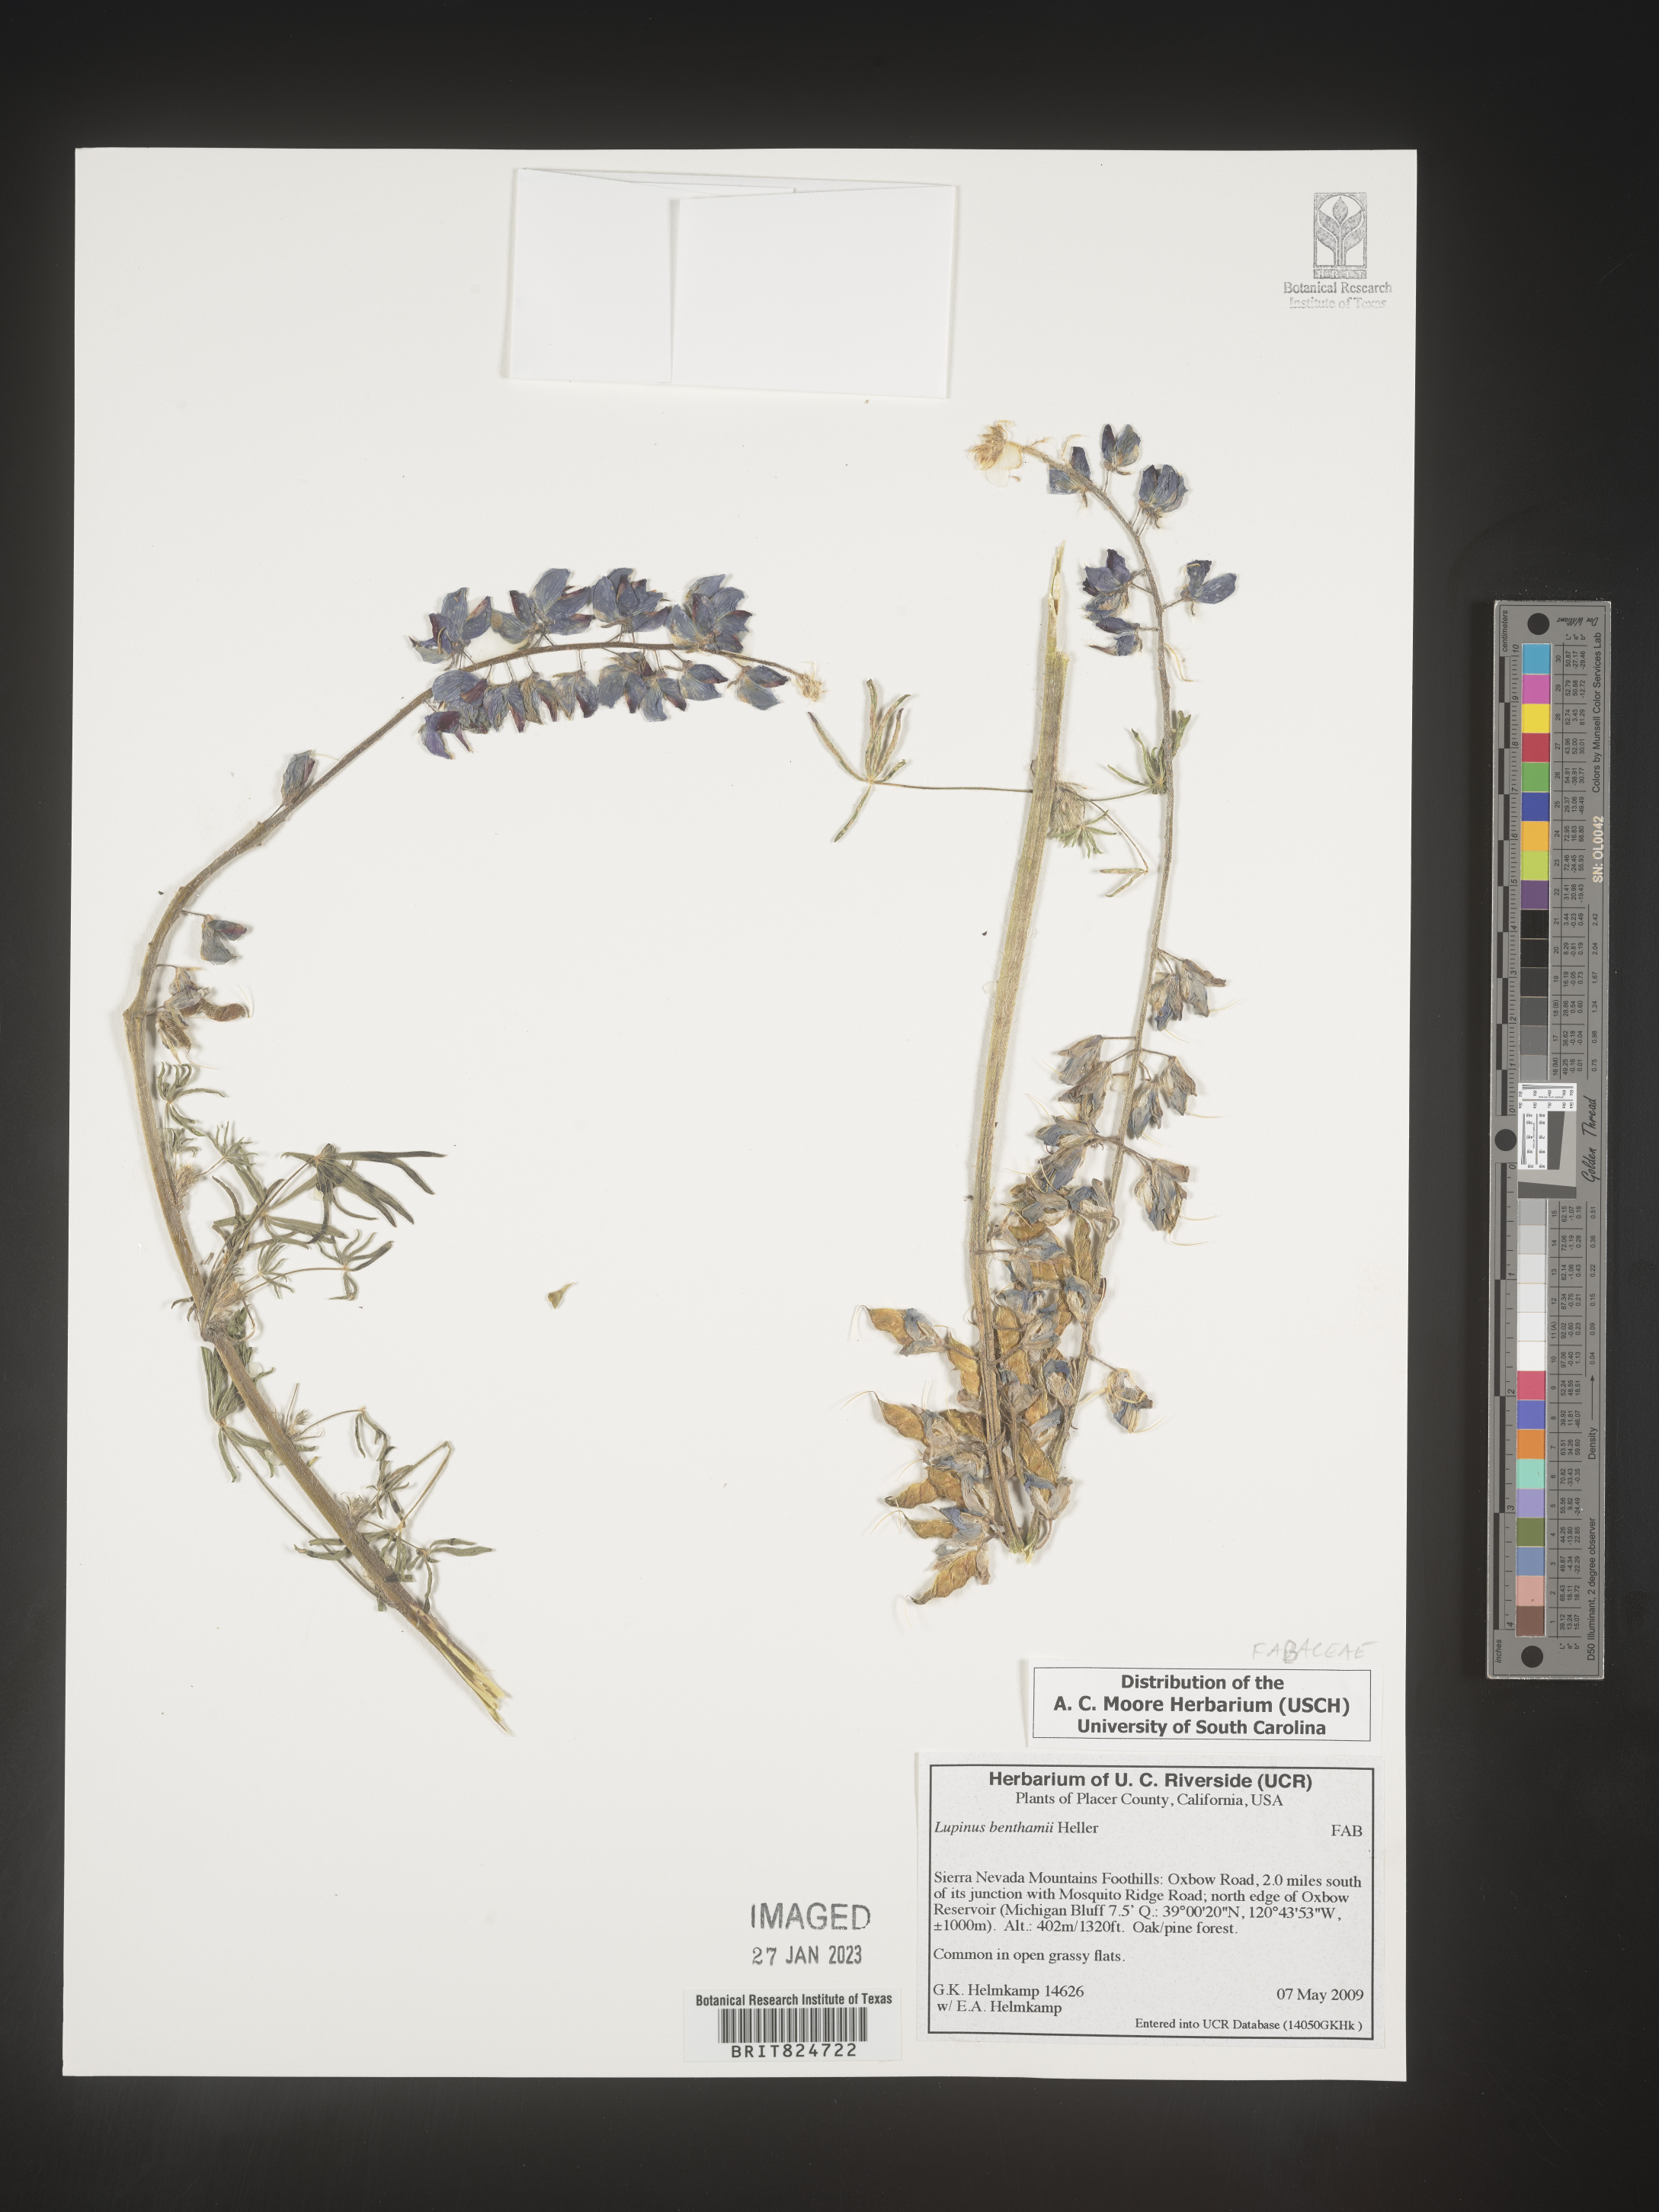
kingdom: Plantae
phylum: Tracheophyta
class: Magnoliopsida
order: Fabales
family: Fabaceae
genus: Lupinus
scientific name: Lupinus
